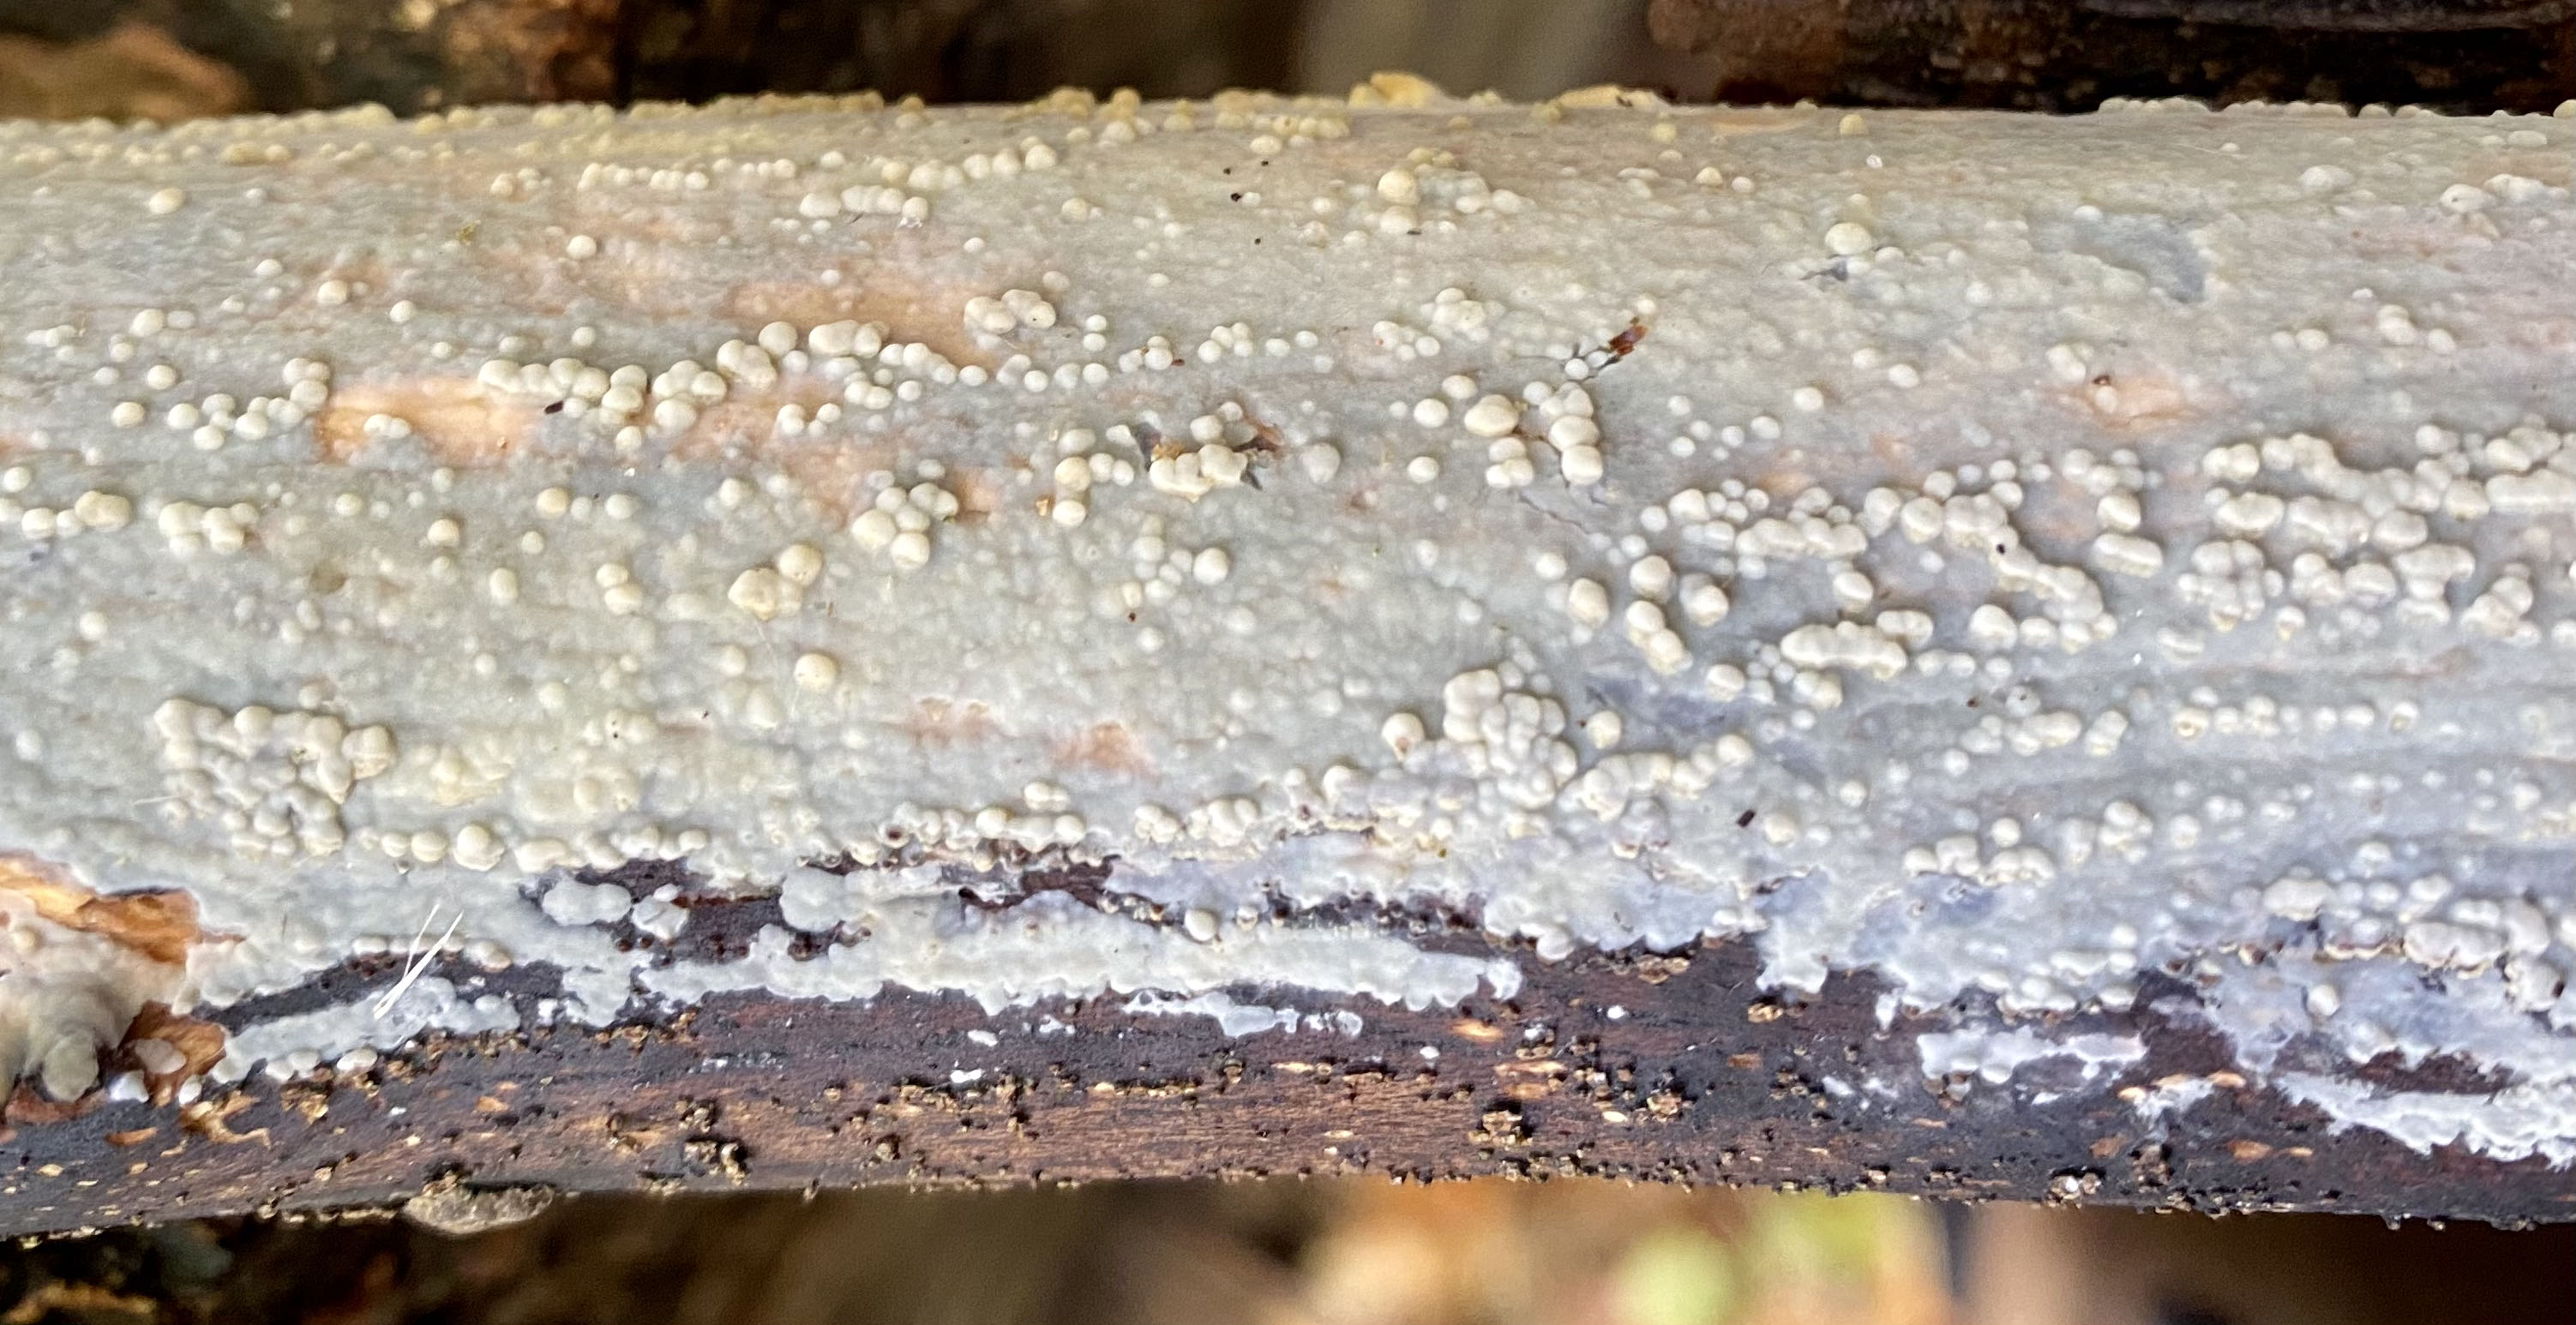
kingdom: Fungi
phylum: Basidiomycota
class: Agaricomycetes
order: Corticiales
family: Corticiaceae
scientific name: Corticiaceae
